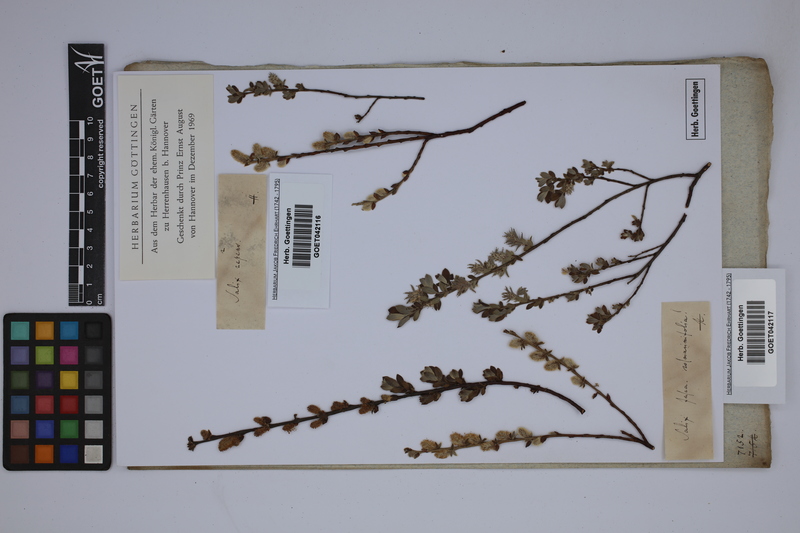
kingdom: Plantae
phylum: Tracheophyta
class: Magnoliopsida
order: Malpighiales
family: Salicaceae
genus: Salix
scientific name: Salix repens
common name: Creeping willow
